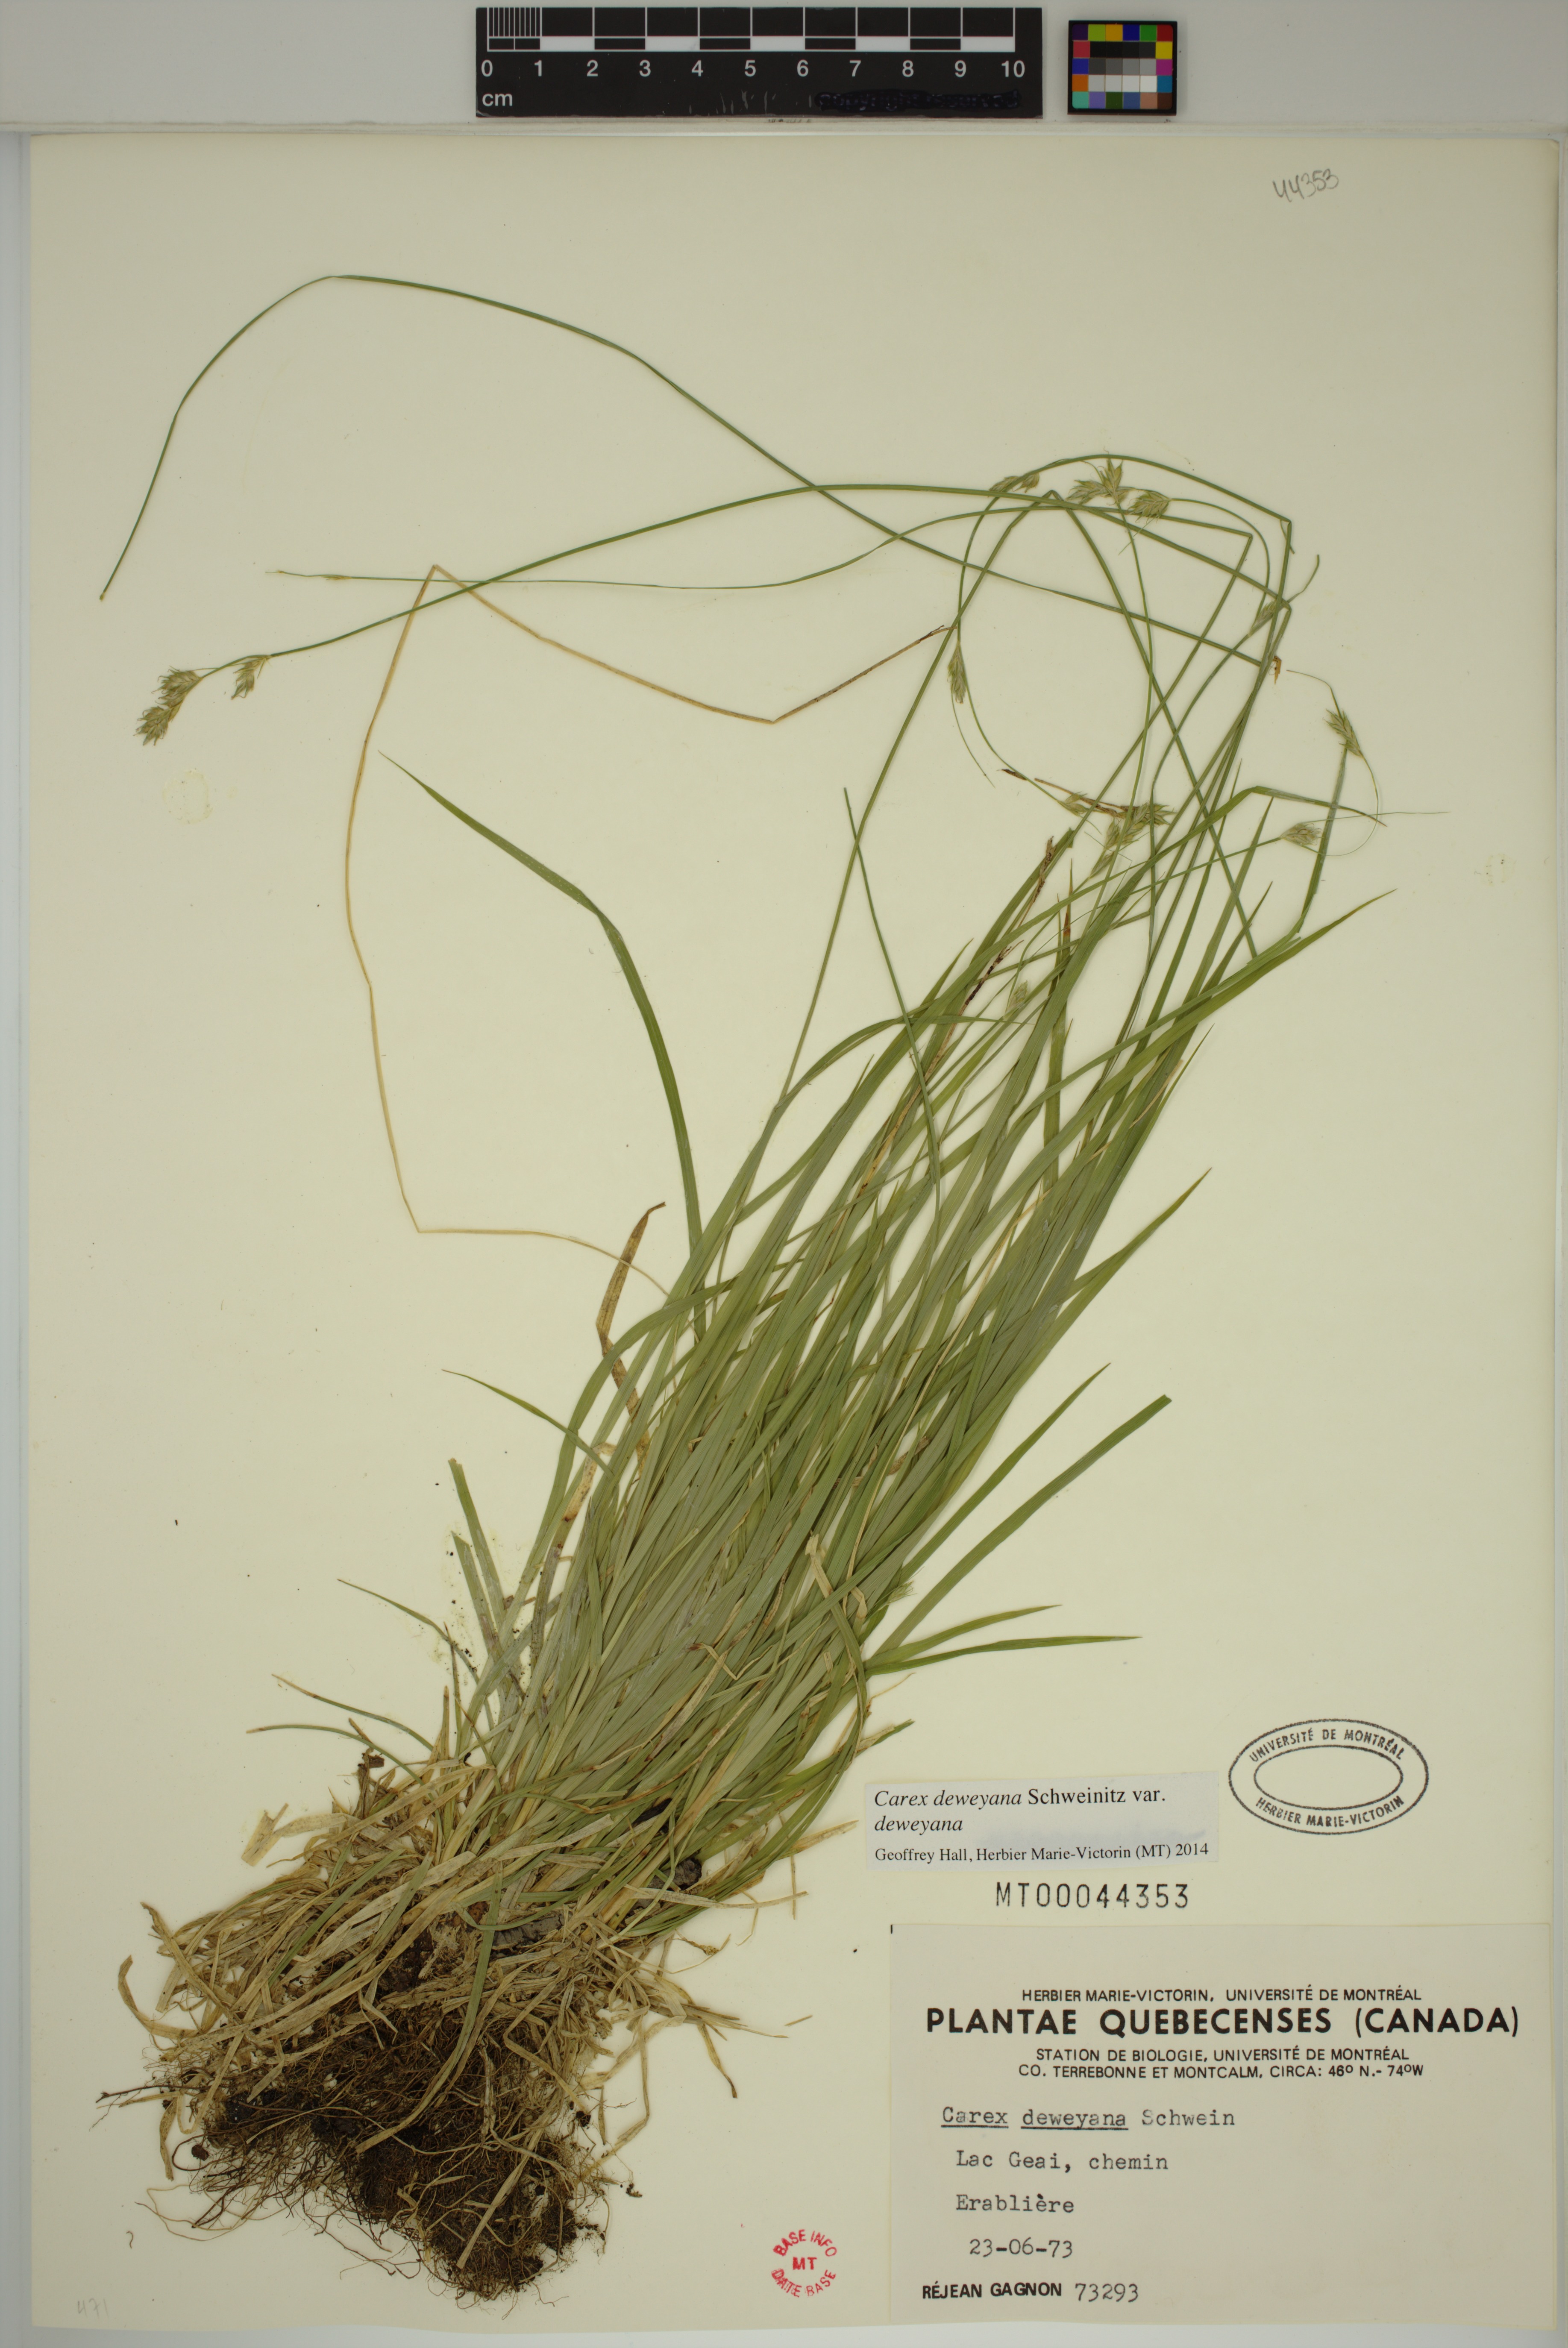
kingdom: Plantae
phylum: Tracheophyta
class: Liliopsida
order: Poales
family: Cyperaceae
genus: Carex
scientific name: Carex deweyana
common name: Dewey's sedge
